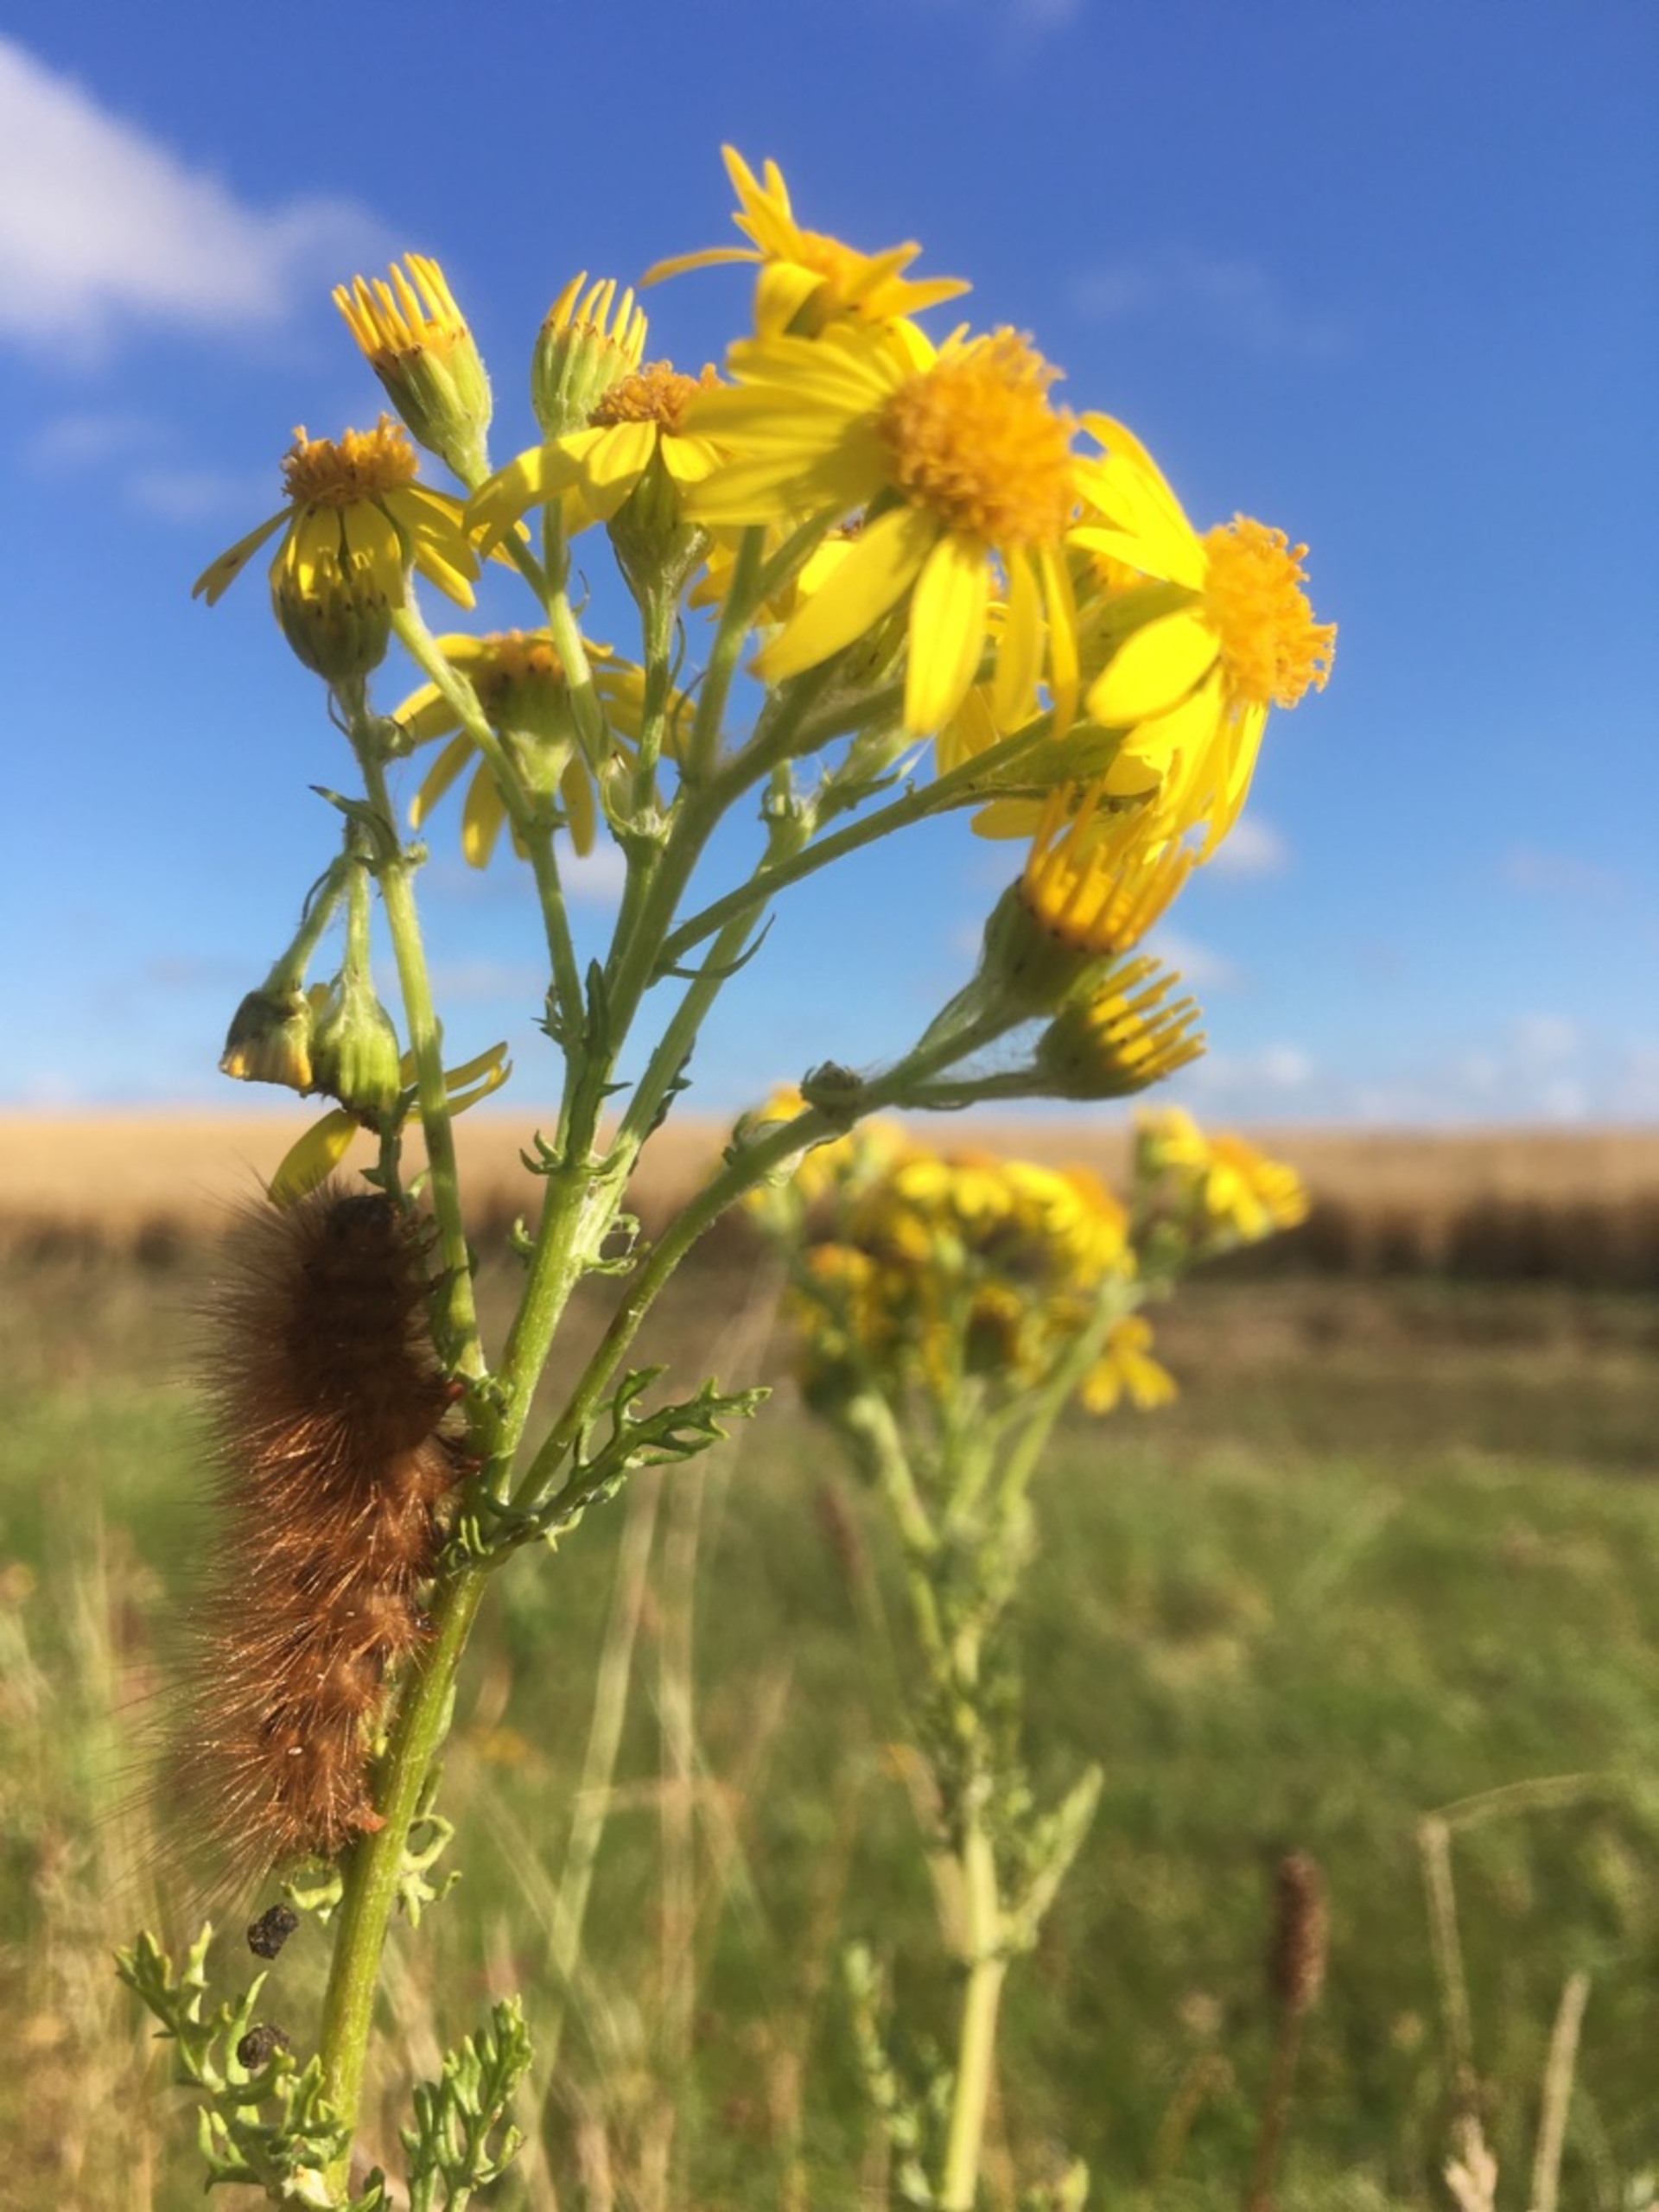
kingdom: Animalia
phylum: Arthropoda
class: Insecta
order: Lepidoptera
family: Erebidae
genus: Phragmatobia
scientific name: Phragmatobia fuliginosa
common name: Kanelbjørn
